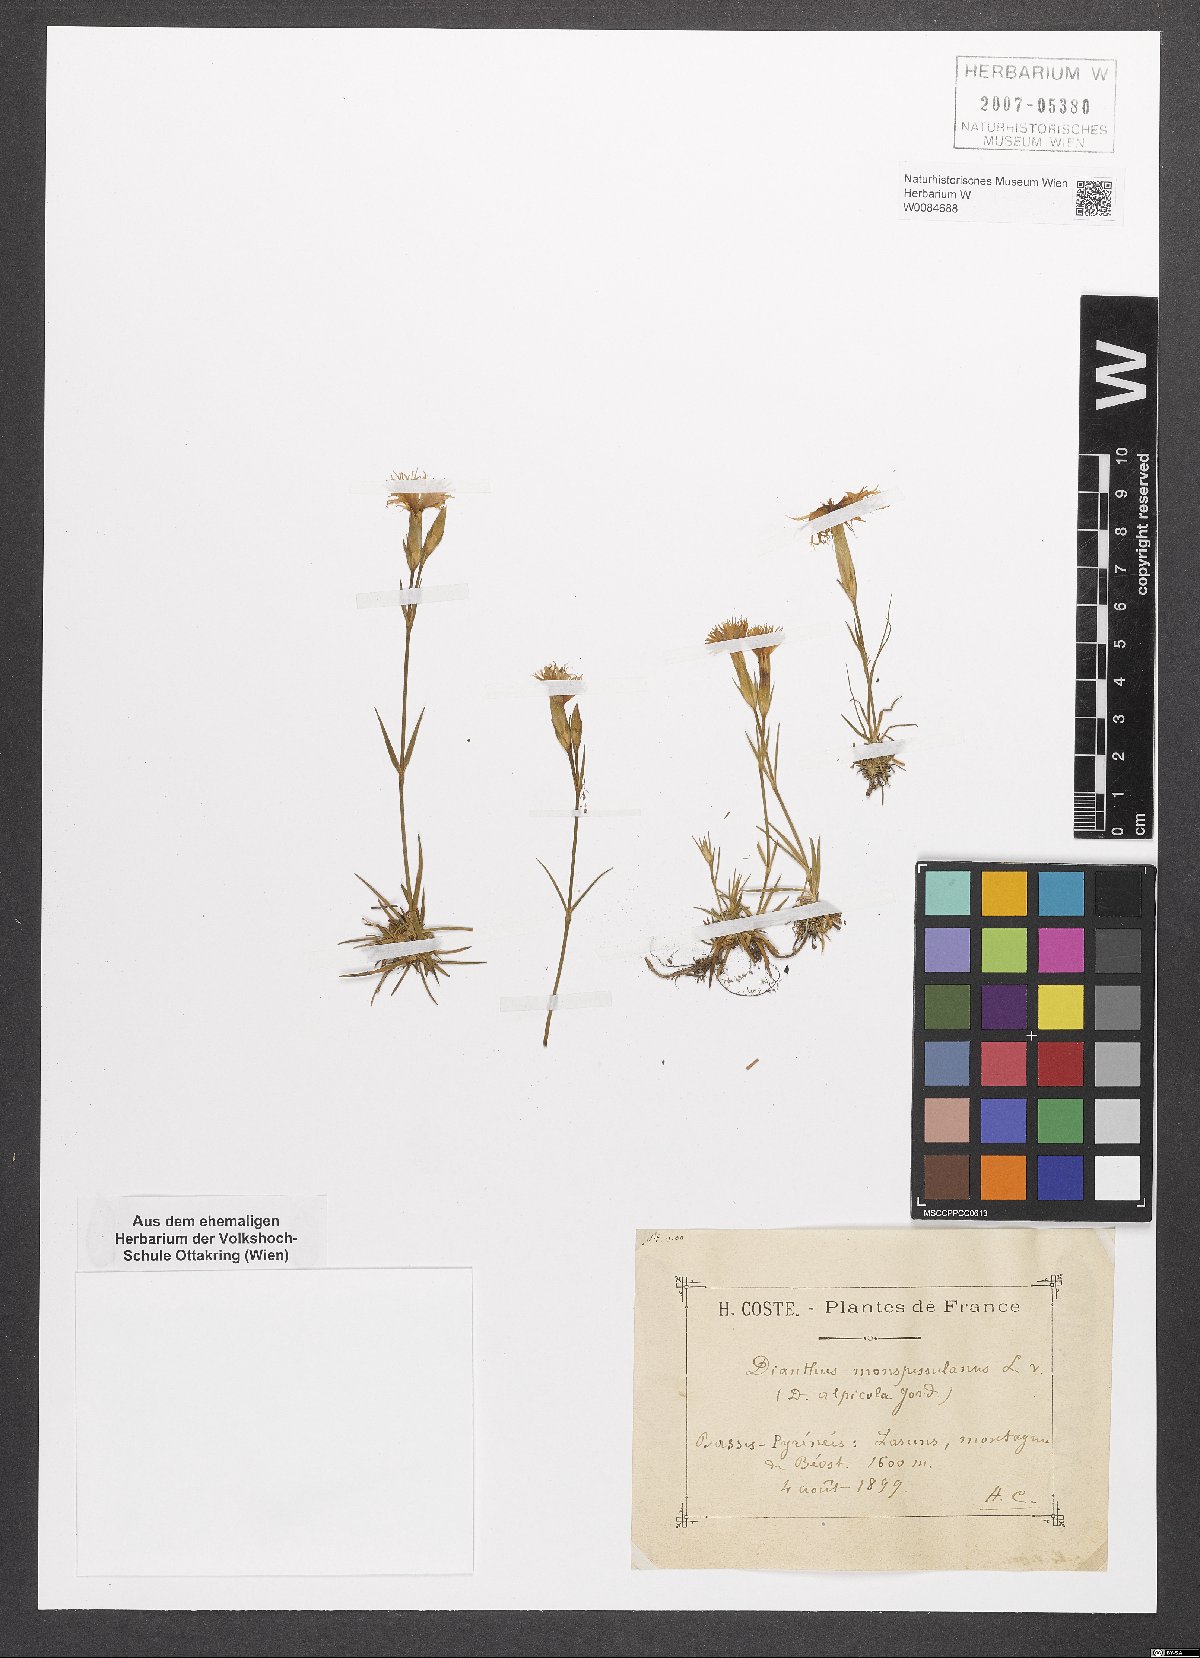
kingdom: Plantae
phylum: Tracheophyta
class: Magnoliopsida
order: Caryophyllales
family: Caryophyllaceae
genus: Dianthus
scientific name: Dianthus hyssopifolius
